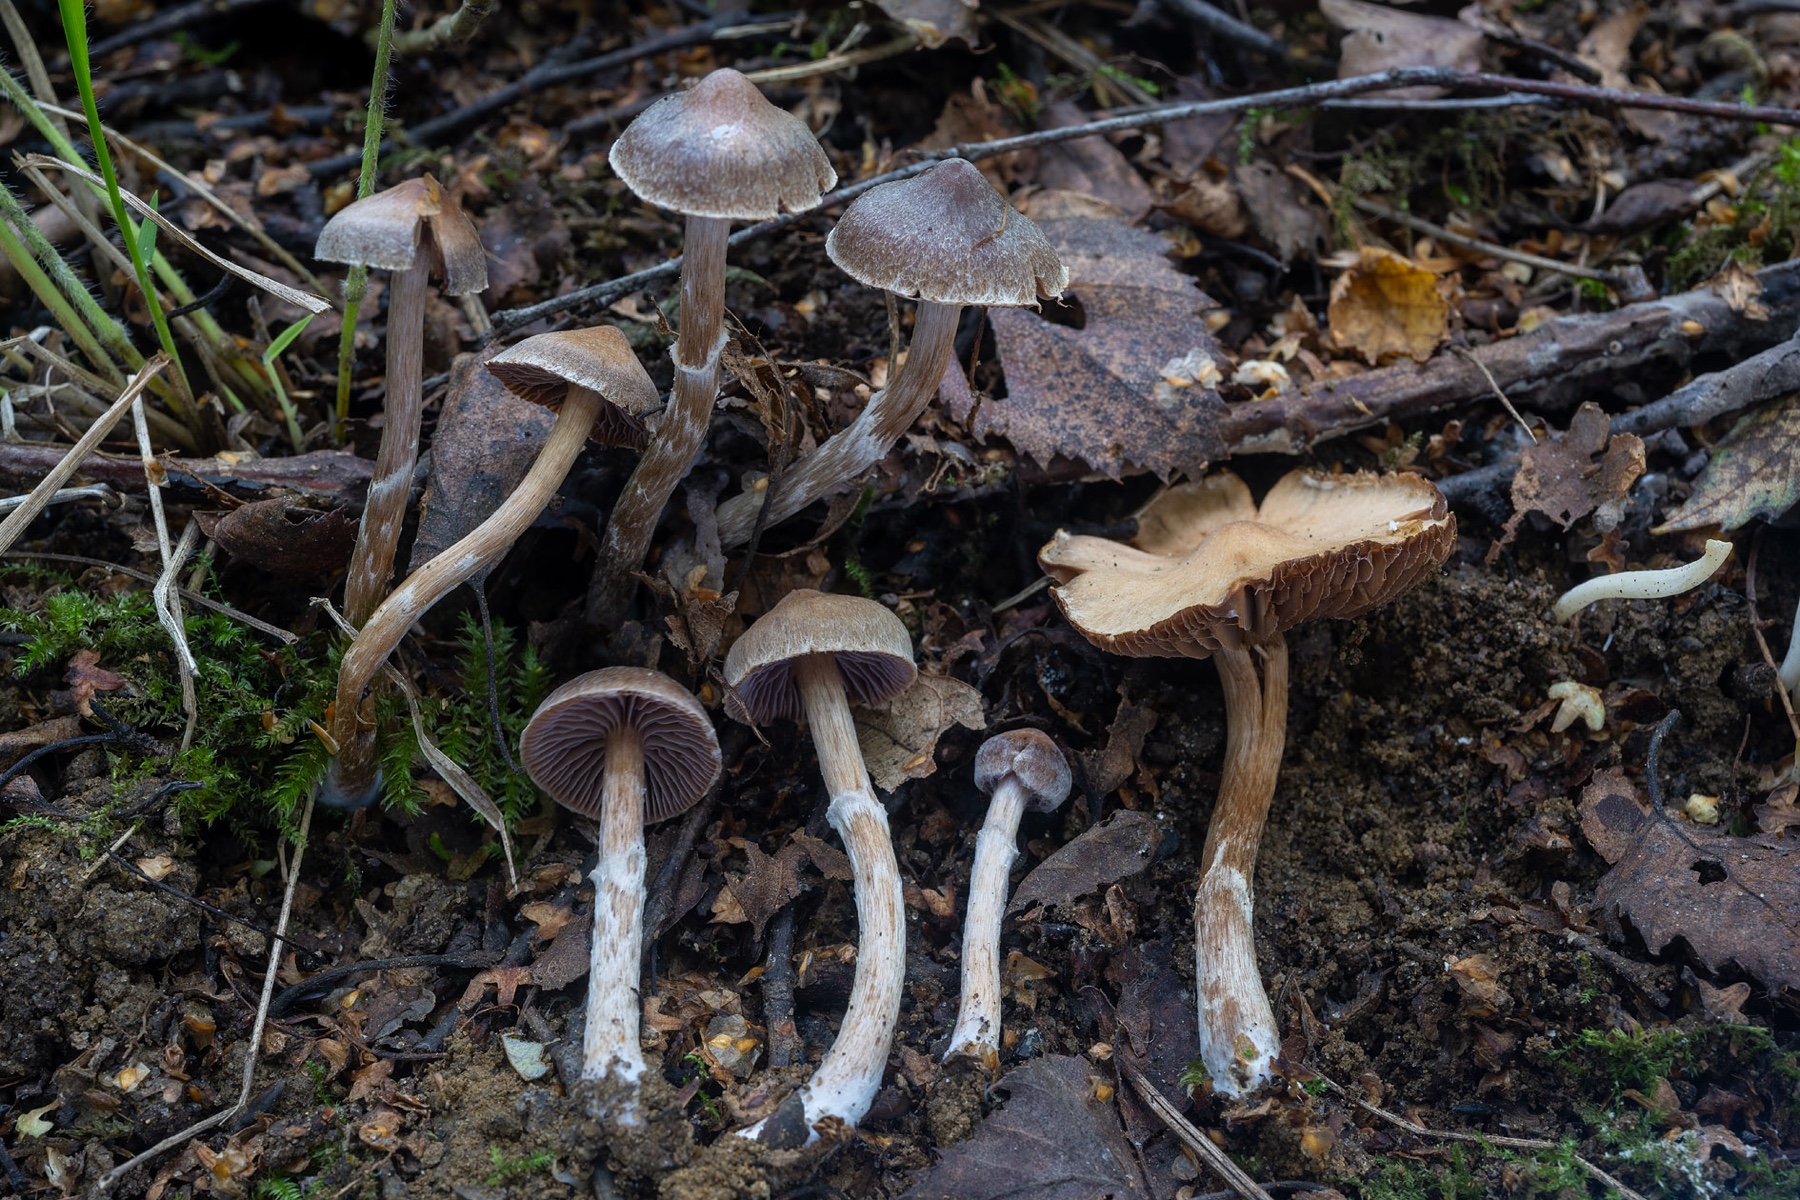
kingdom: Fungi
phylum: Basidiomycota
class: Agaricomycetes
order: Agaricales
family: Cortinariaceae
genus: Cortinarius
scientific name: Cortinarius desertorum
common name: skær slørhat
